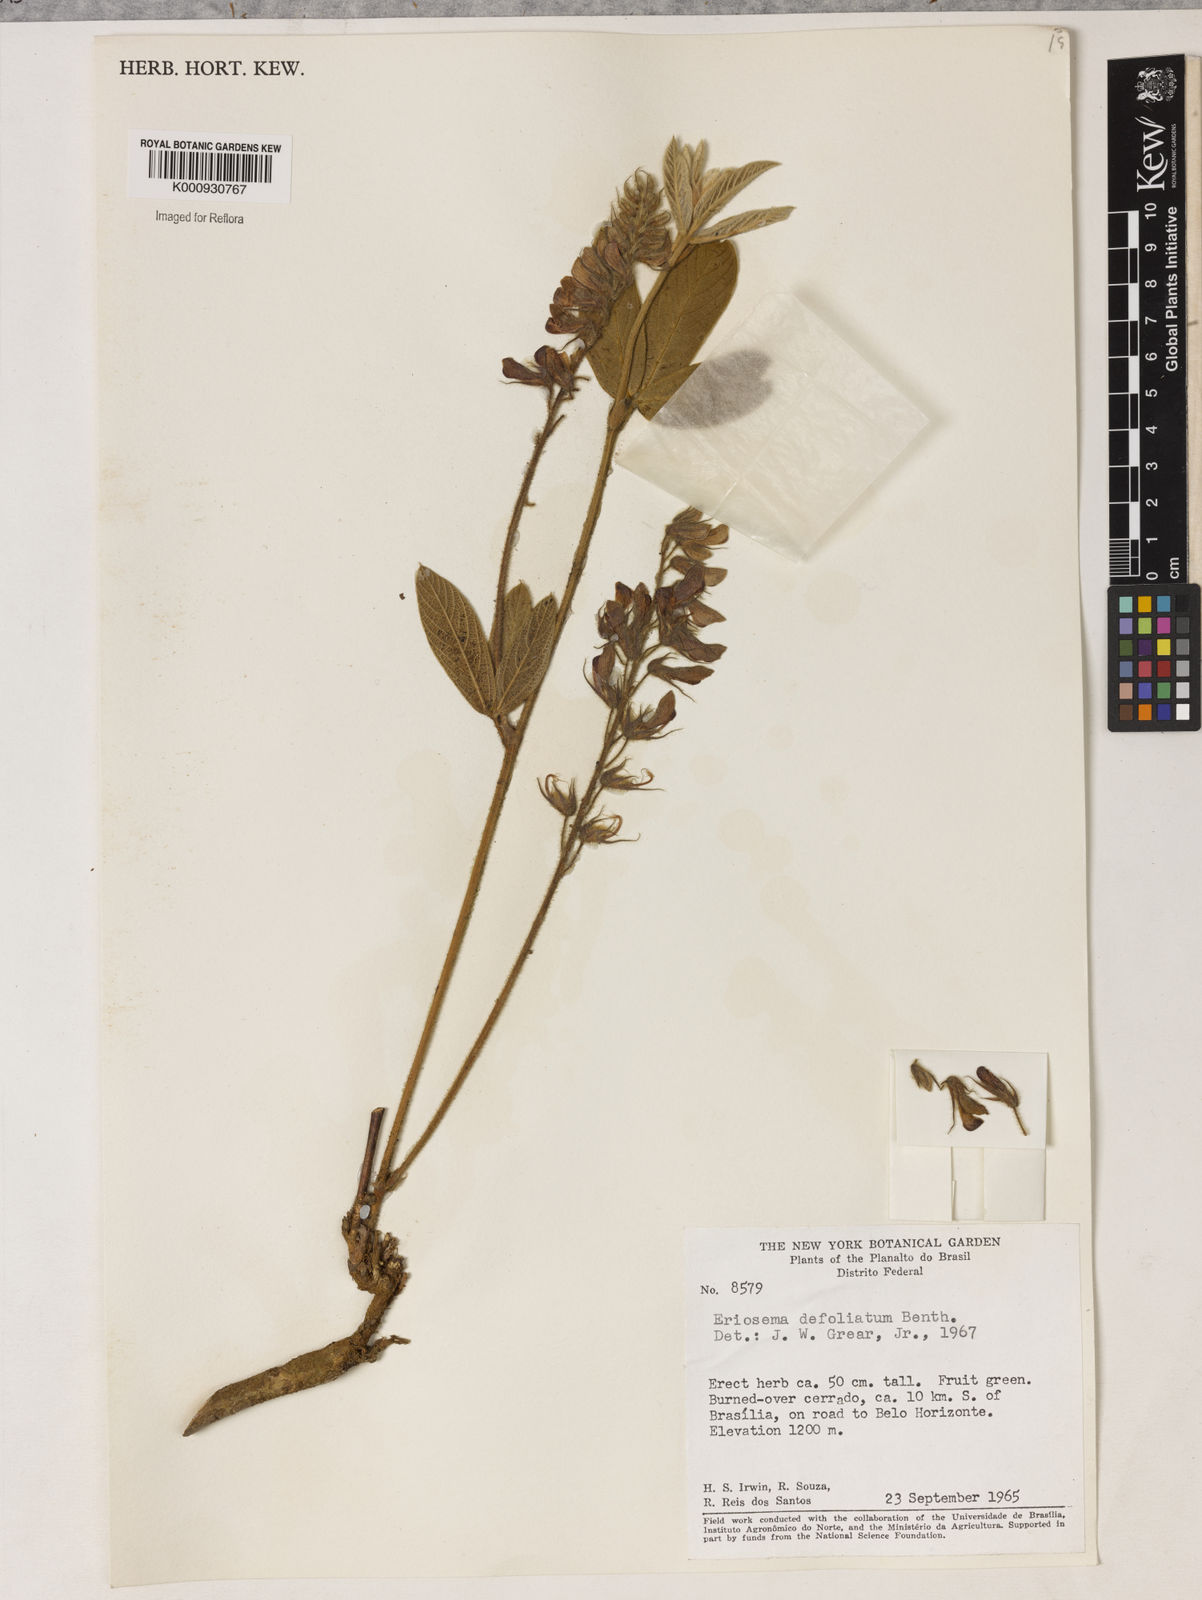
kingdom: Plantae
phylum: Tracheophyta
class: Magnoliopsida
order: Fabales
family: Fabaceae
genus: Eriosema
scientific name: Eriosema defoliatum
